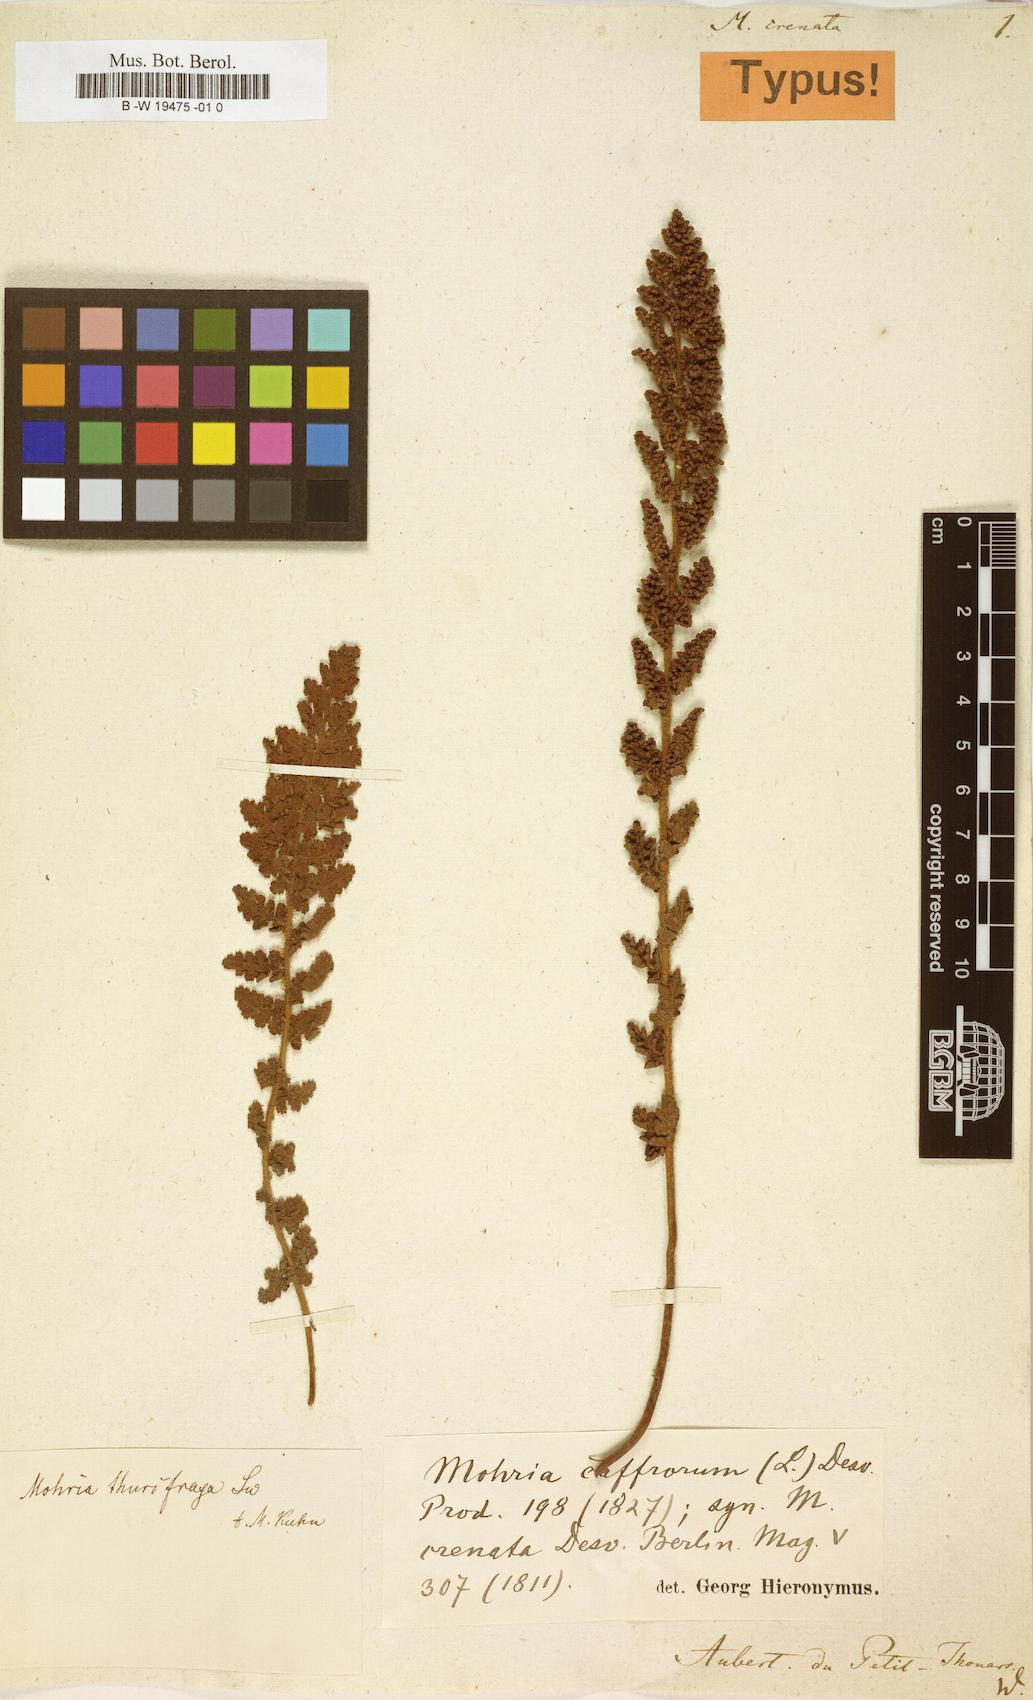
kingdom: Plantae
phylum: Tracheophyta
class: Polypodiopsida
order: Schizaeales
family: Anemiaceae
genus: Anemia
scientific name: Anemia marginalis
